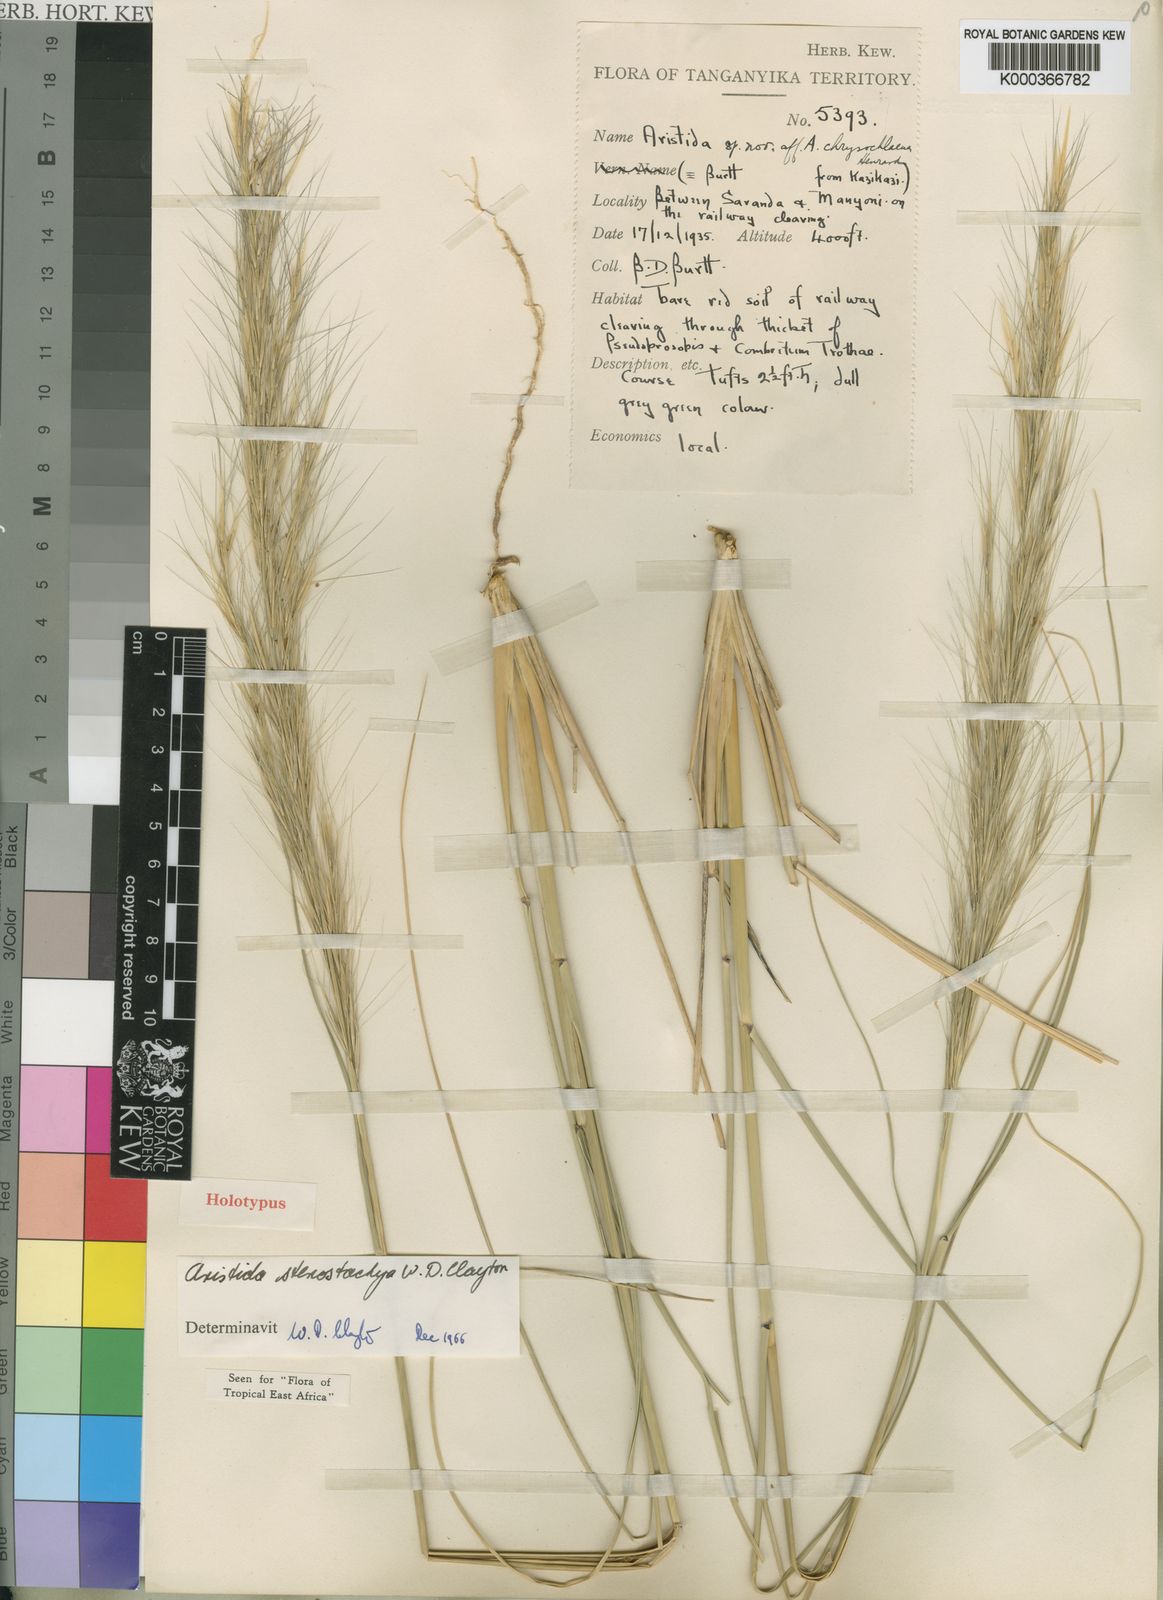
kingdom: Plantae
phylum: Tracheophyta
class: Liliopsida
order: Poales
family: Poaceae
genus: Aristida
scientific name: Aristida stenostachya
